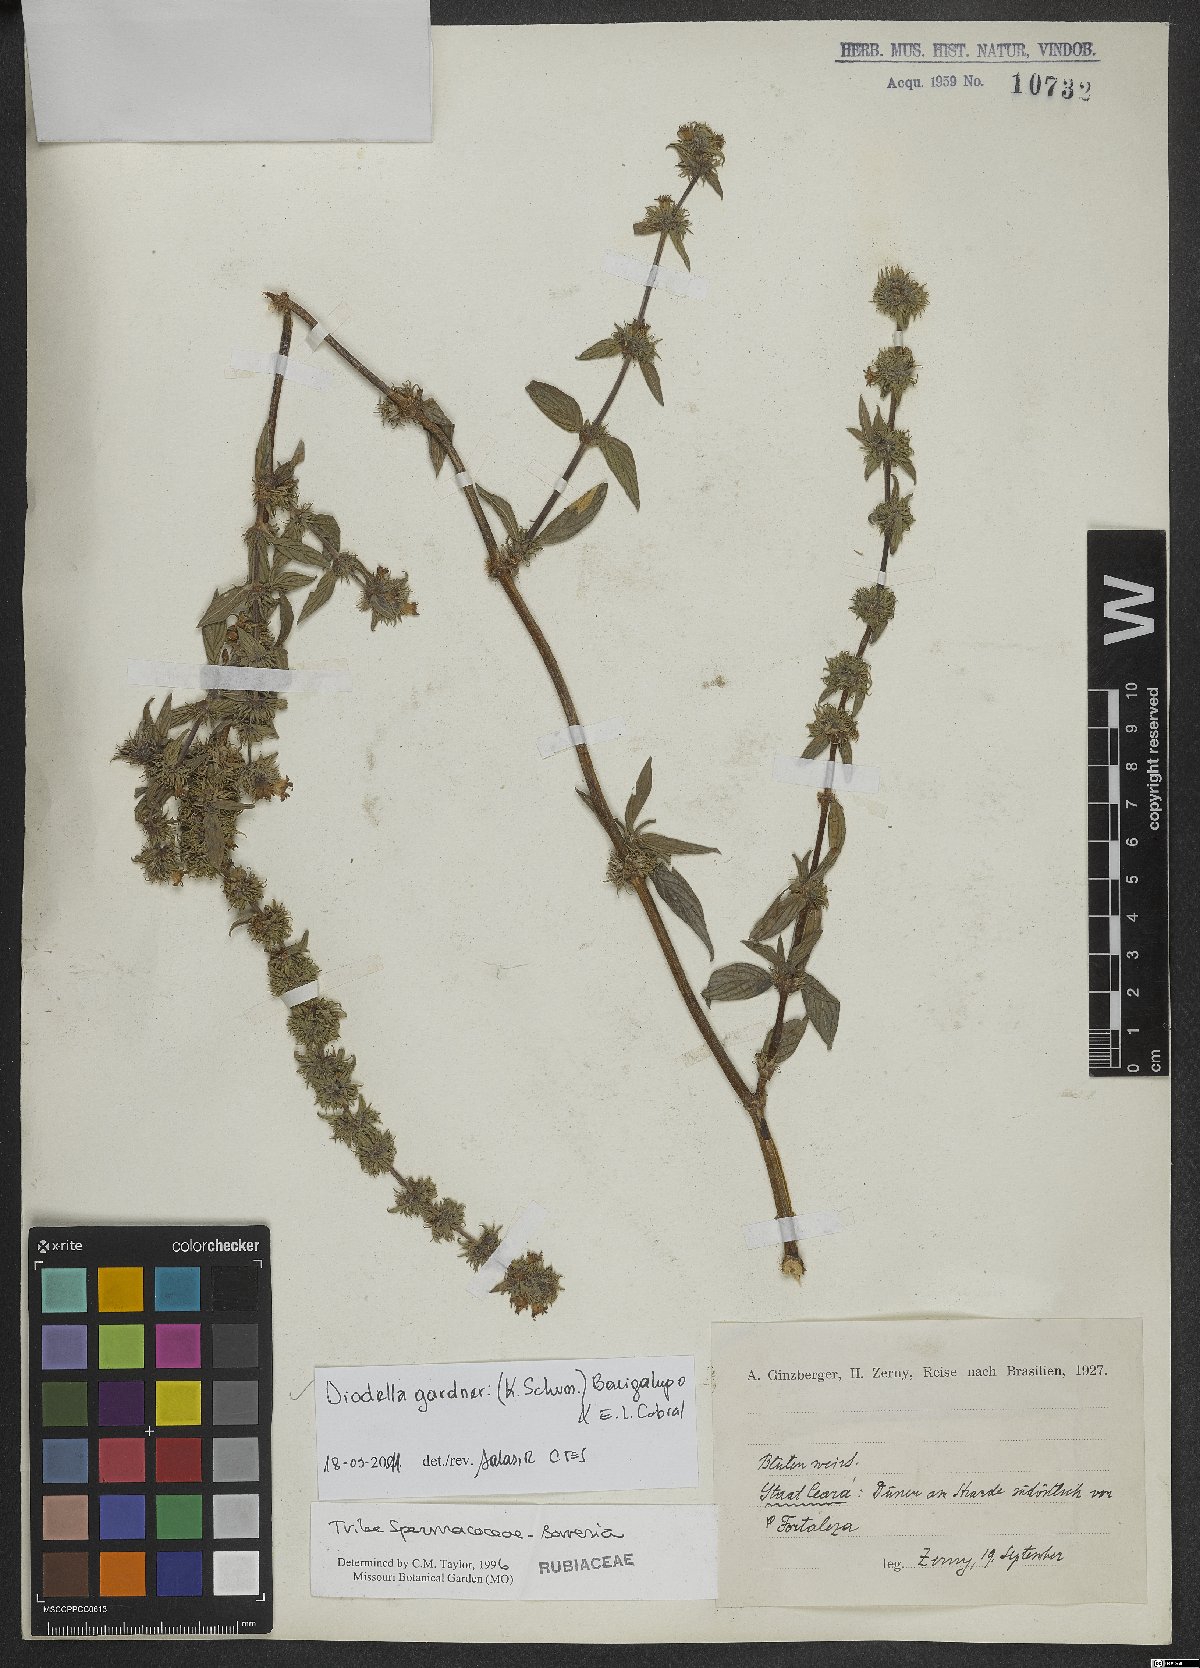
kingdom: Plantae
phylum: Tracheophyta
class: Magnoliopsida
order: Gentianales
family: Rubiaceae
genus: Hexasepalum
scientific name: Hexasepalum gardneri
